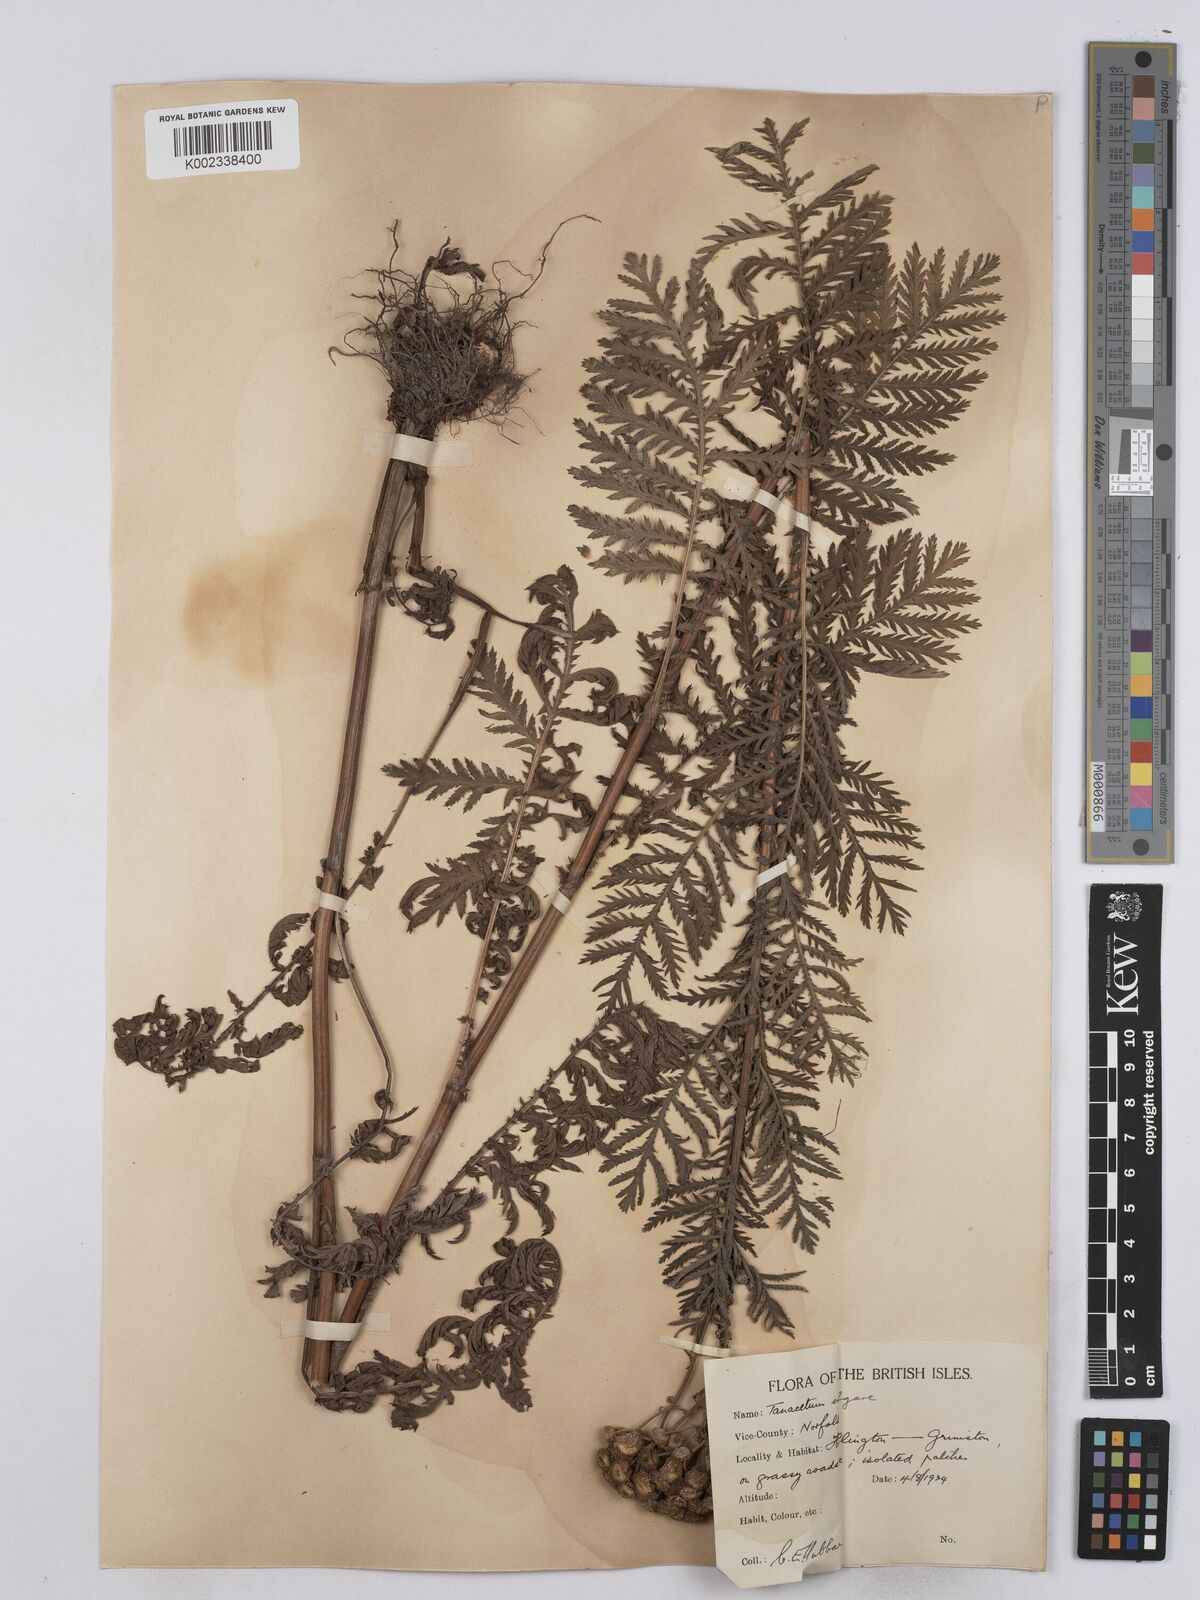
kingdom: Plantae
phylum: Tracheophyta
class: Magnoliopsida
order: Asterales
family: Asteraceae
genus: Tanacetum
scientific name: Tanacetum vulgare
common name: Common tansy
